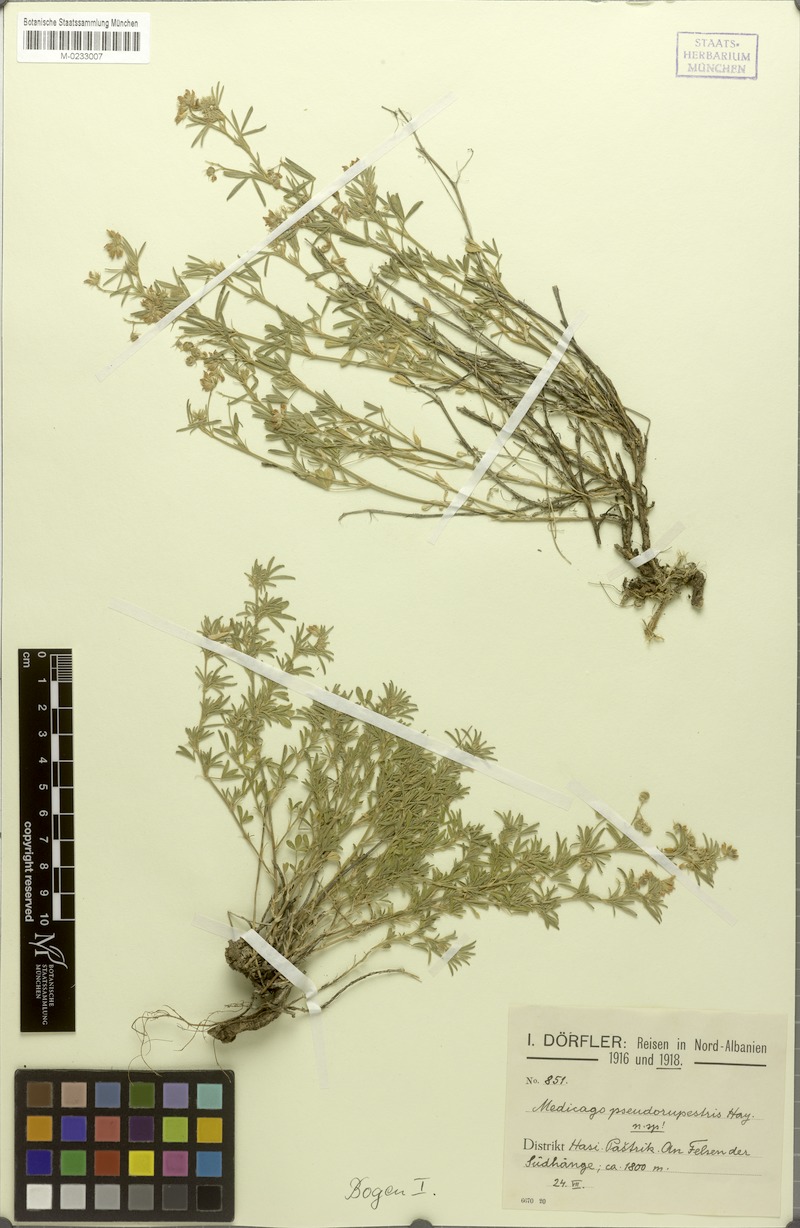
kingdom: Plantae
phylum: Tracheophyta
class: Magnoliopsida
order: Fabales
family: Fabaceae
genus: Medicago
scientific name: Medicago prostrata
